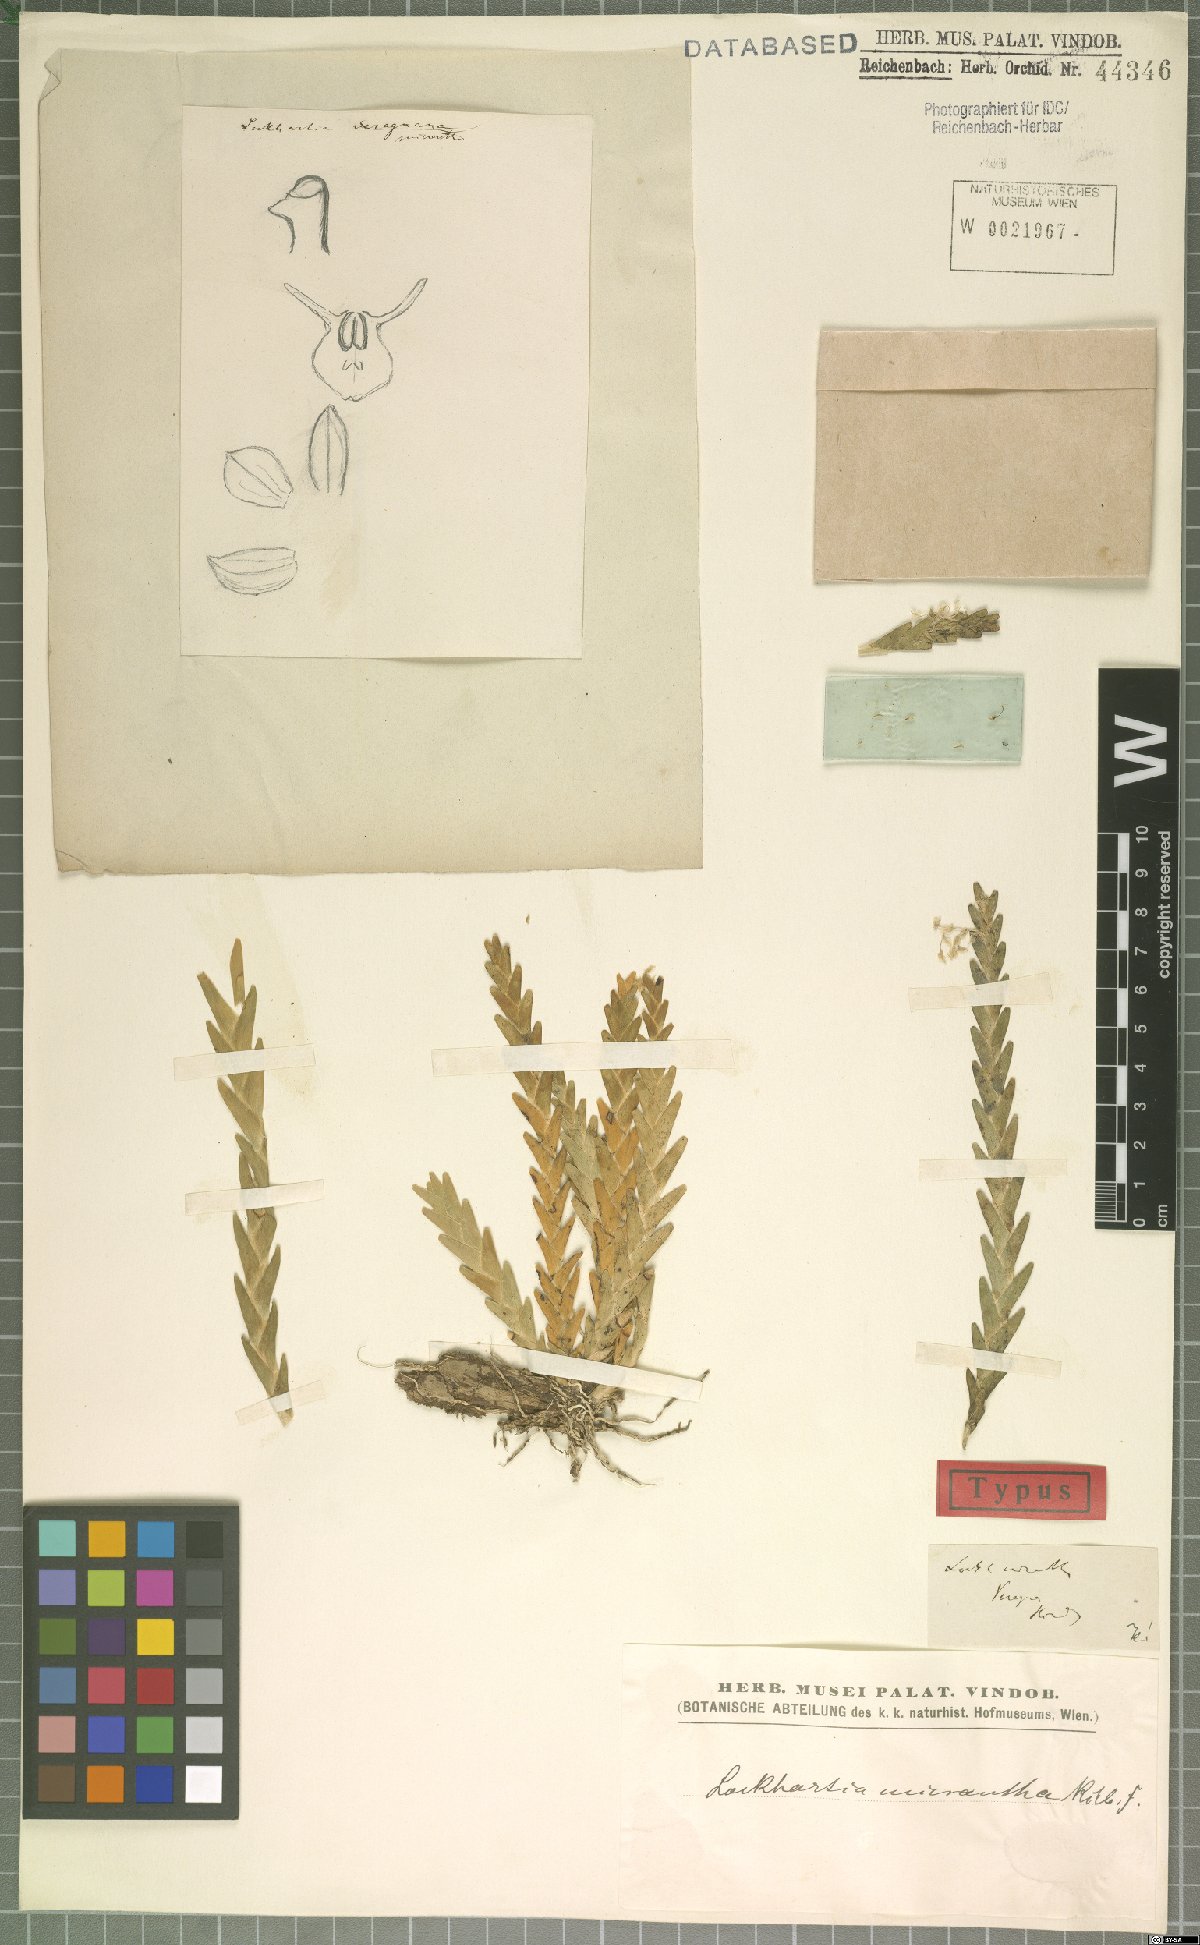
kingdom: Plantae
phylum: Tracheophyta
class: Liliopsida
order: Asparagales
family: Orchidaceae
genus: Lockhartia
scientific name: Lockhartia micrantha
